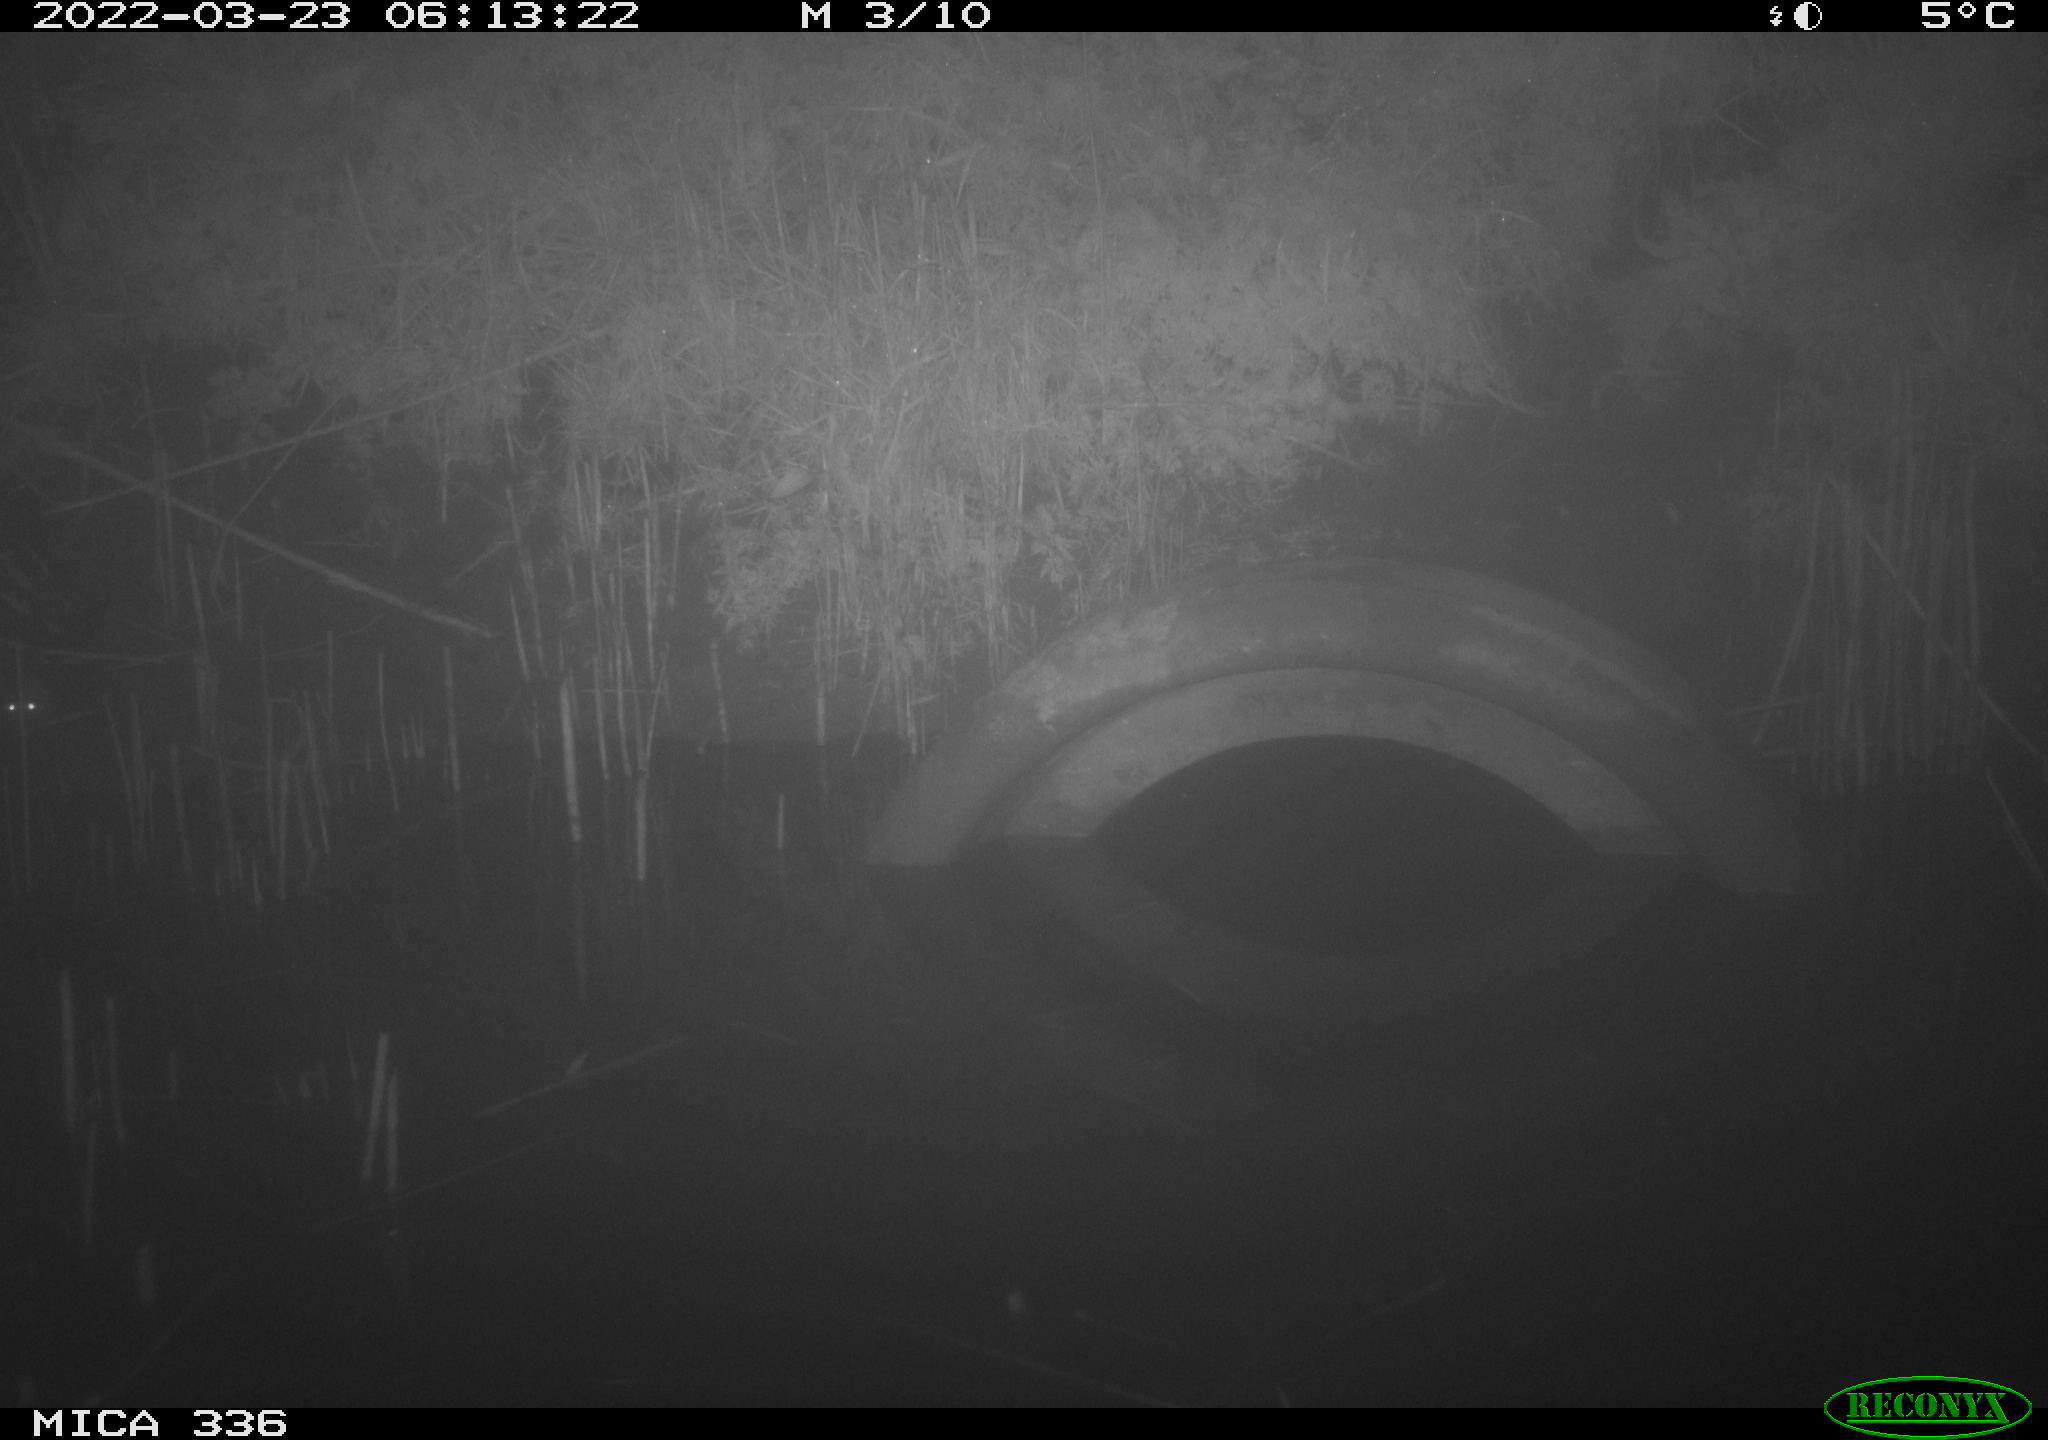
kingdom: Animalia
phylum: Chordata
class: Mammalia
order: Rodentia
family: Muridae
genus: Rattus
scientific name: Rattus norvegicus
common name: Brown rat
